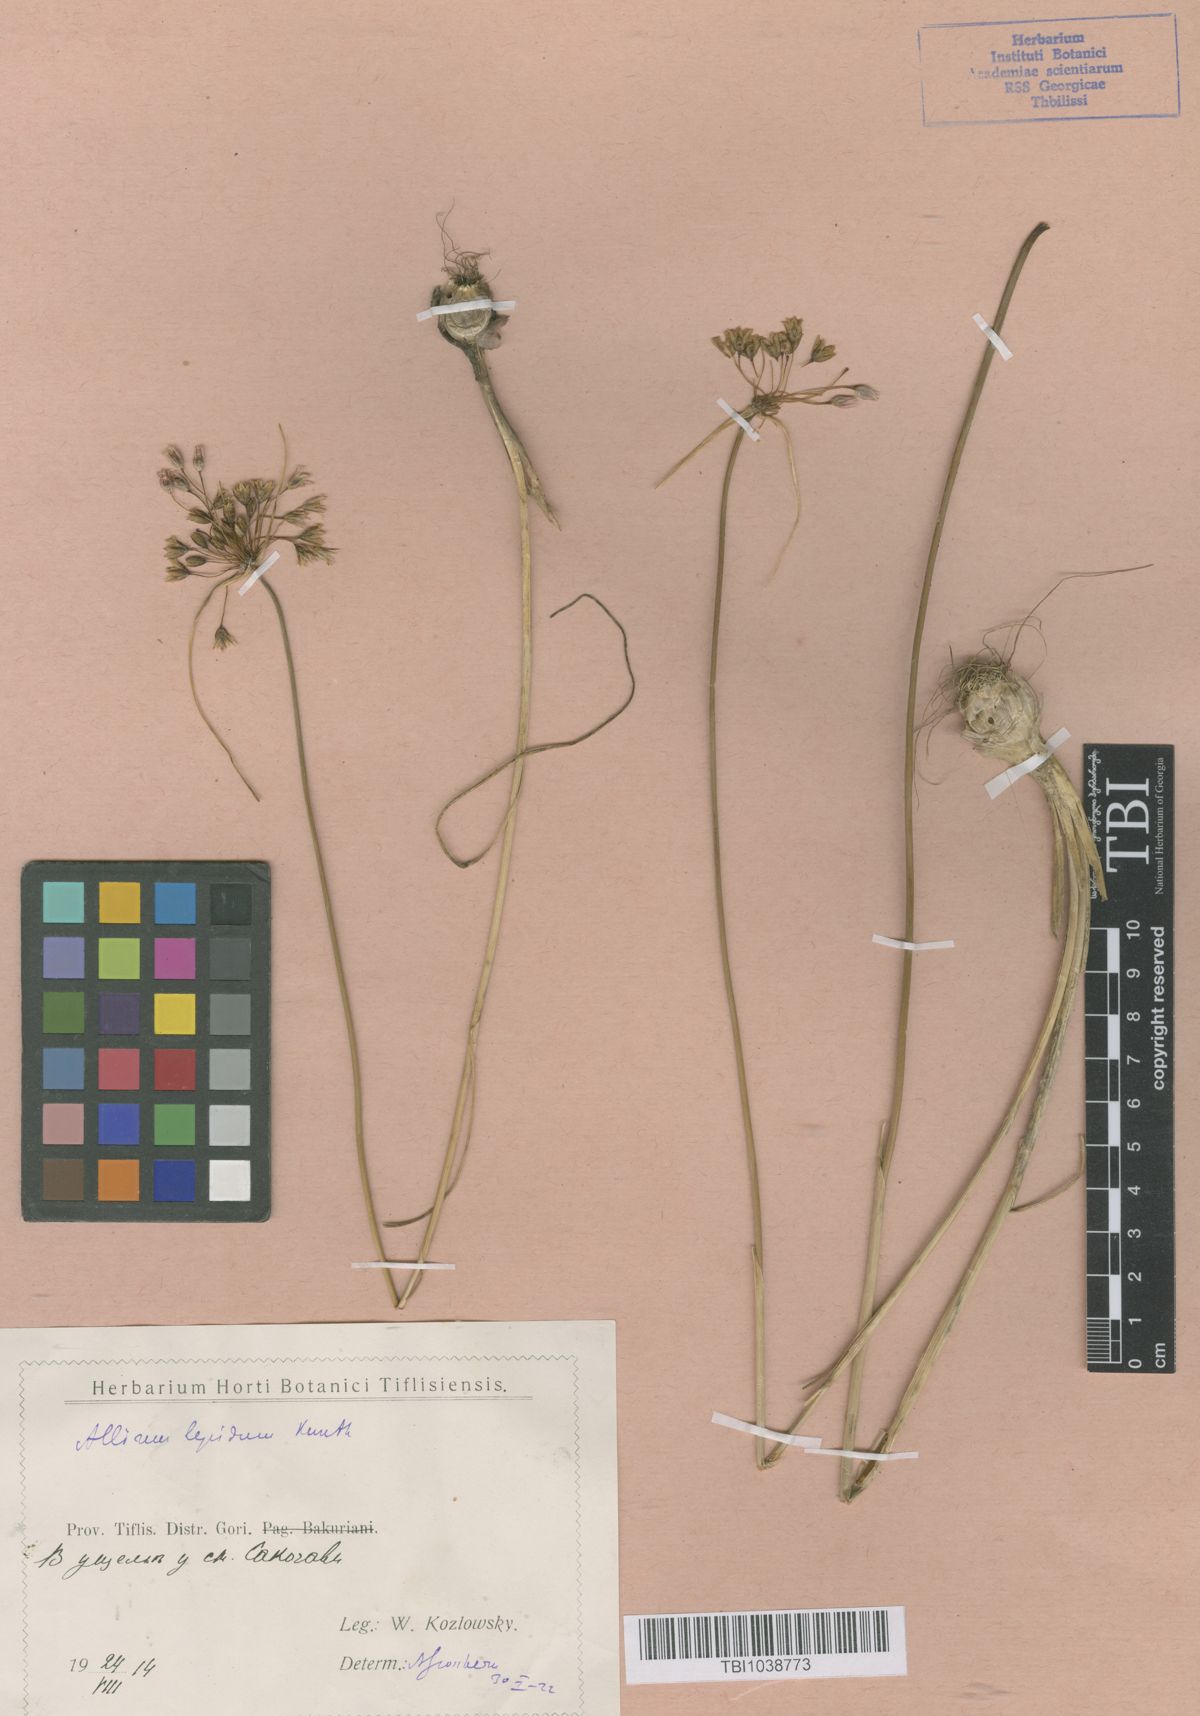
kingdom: Plantae
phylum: Tracheophyta
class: Liliopsida
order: Asparagales
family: Amaryllidaceae
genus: Allium
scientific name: Allium kunthianum
